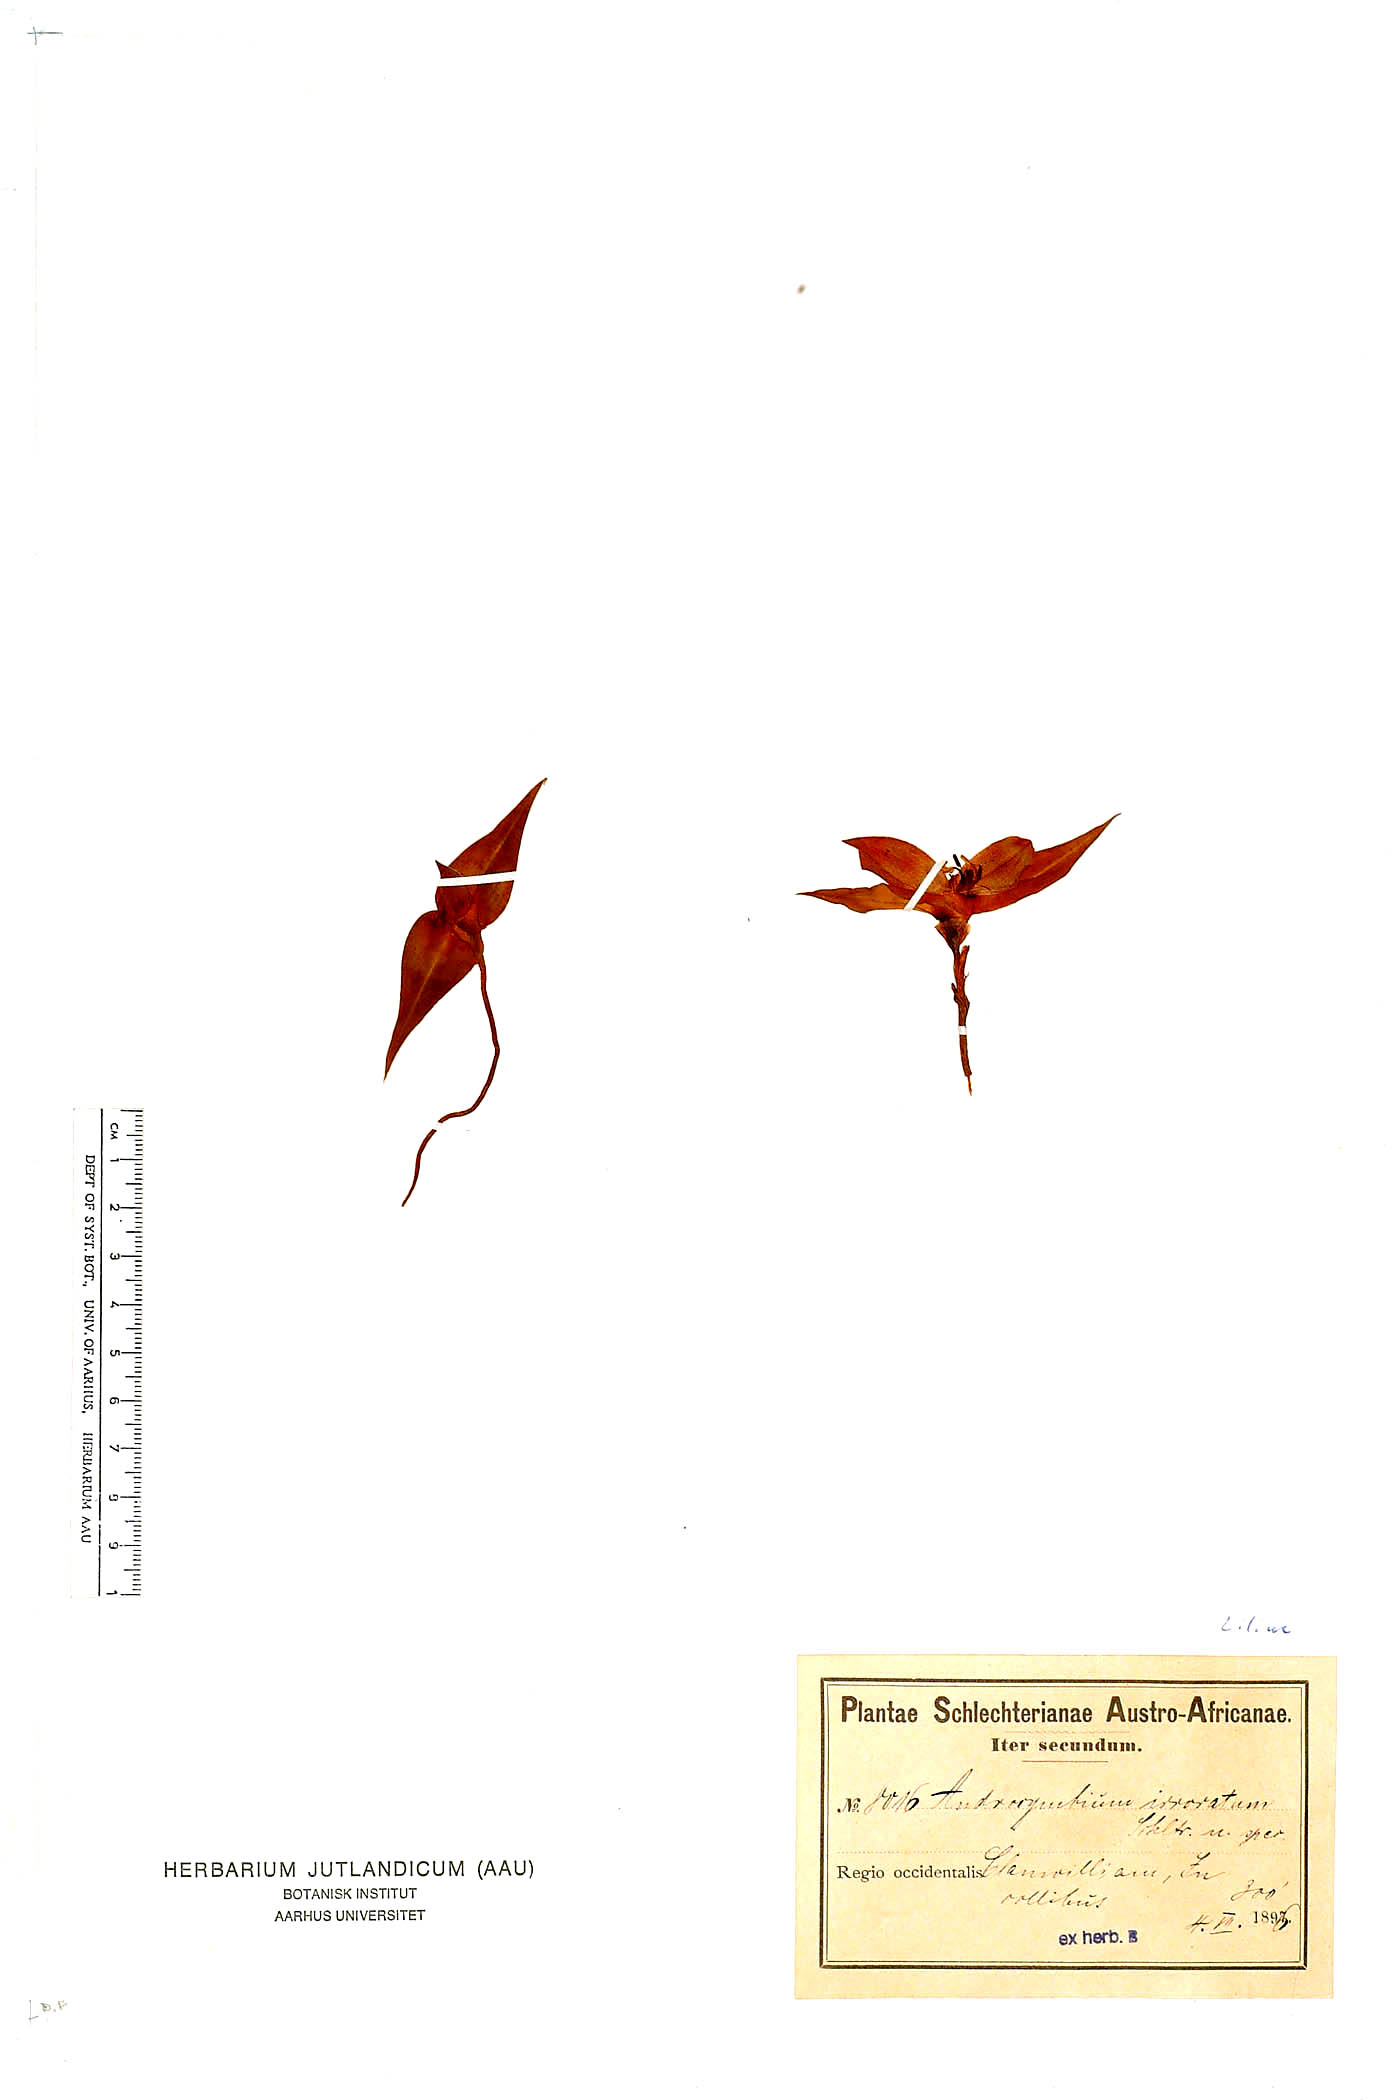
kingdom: Plantae
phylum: Tracheophyta
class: Liliopsida
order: Liliales
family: Colchicaceae
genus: Colchicum
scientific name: Colchicum irroratum
